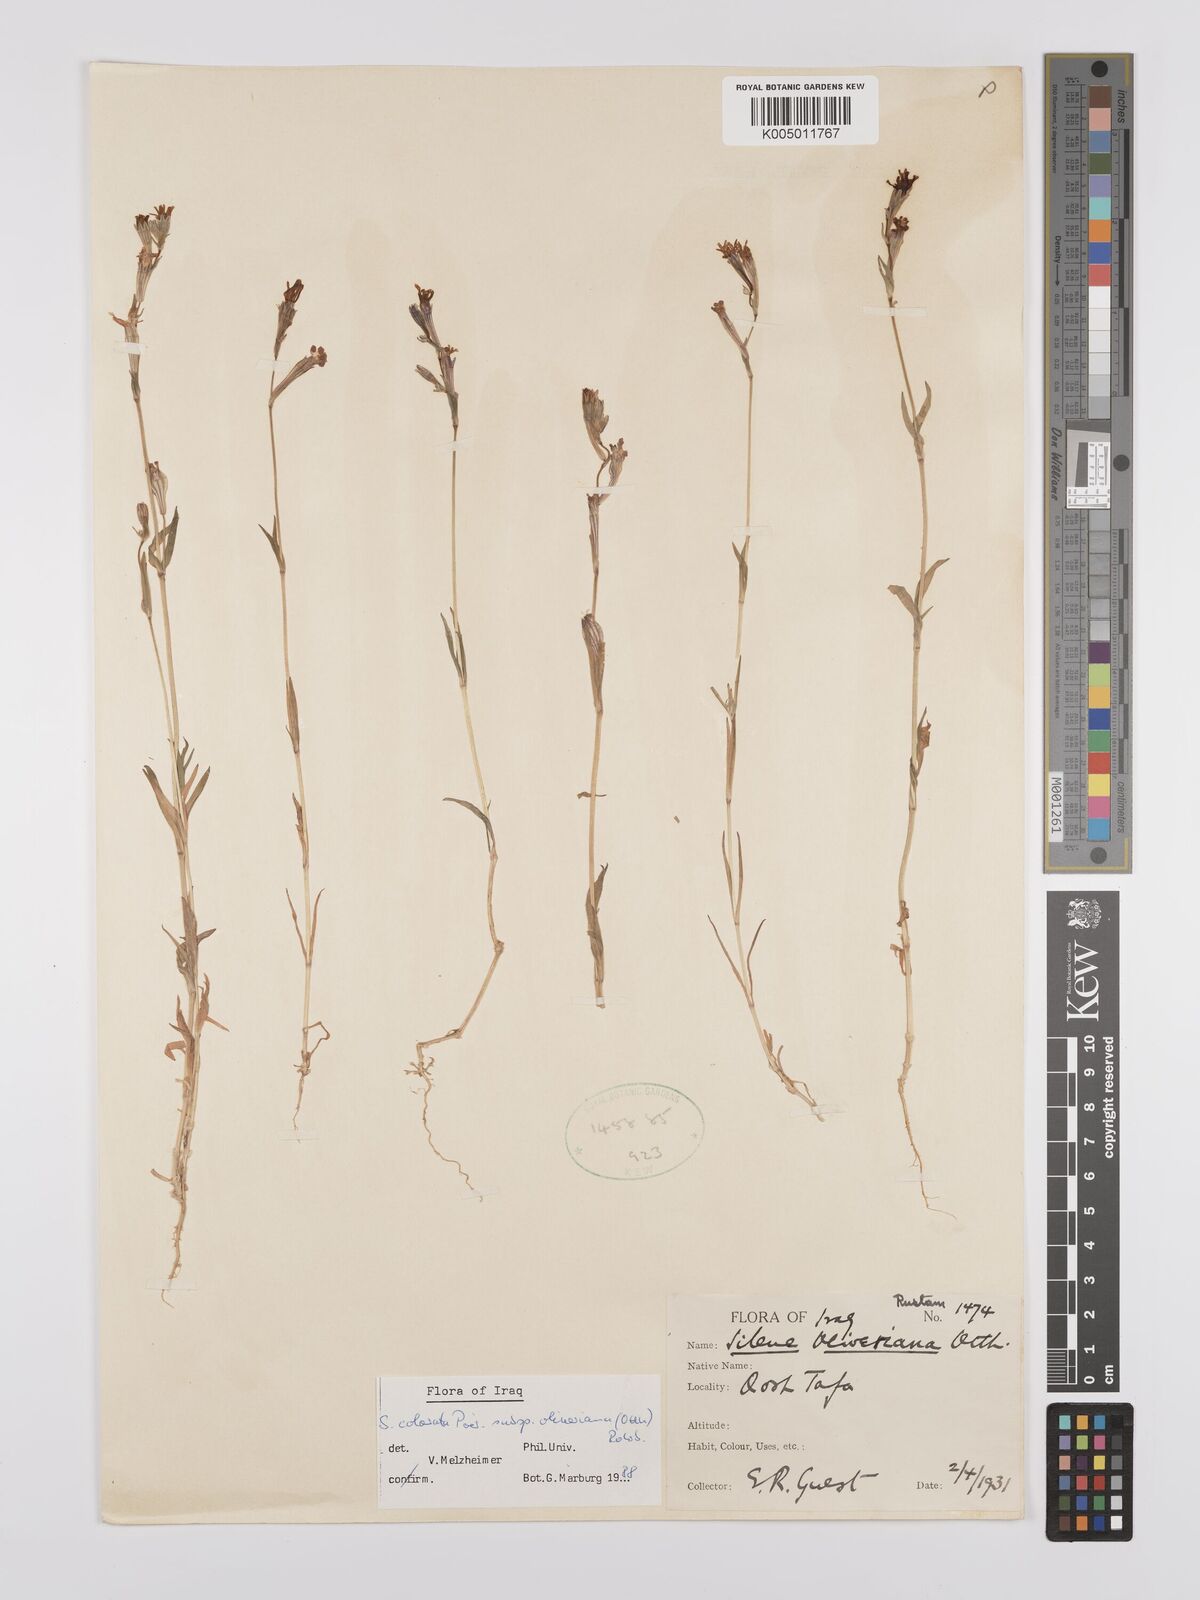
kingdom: Plantae
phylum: Tracheophyta
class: Magnoliopsida
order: Caryophyllales
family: Caryophyllaceae
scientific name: Caryophyllaceae
